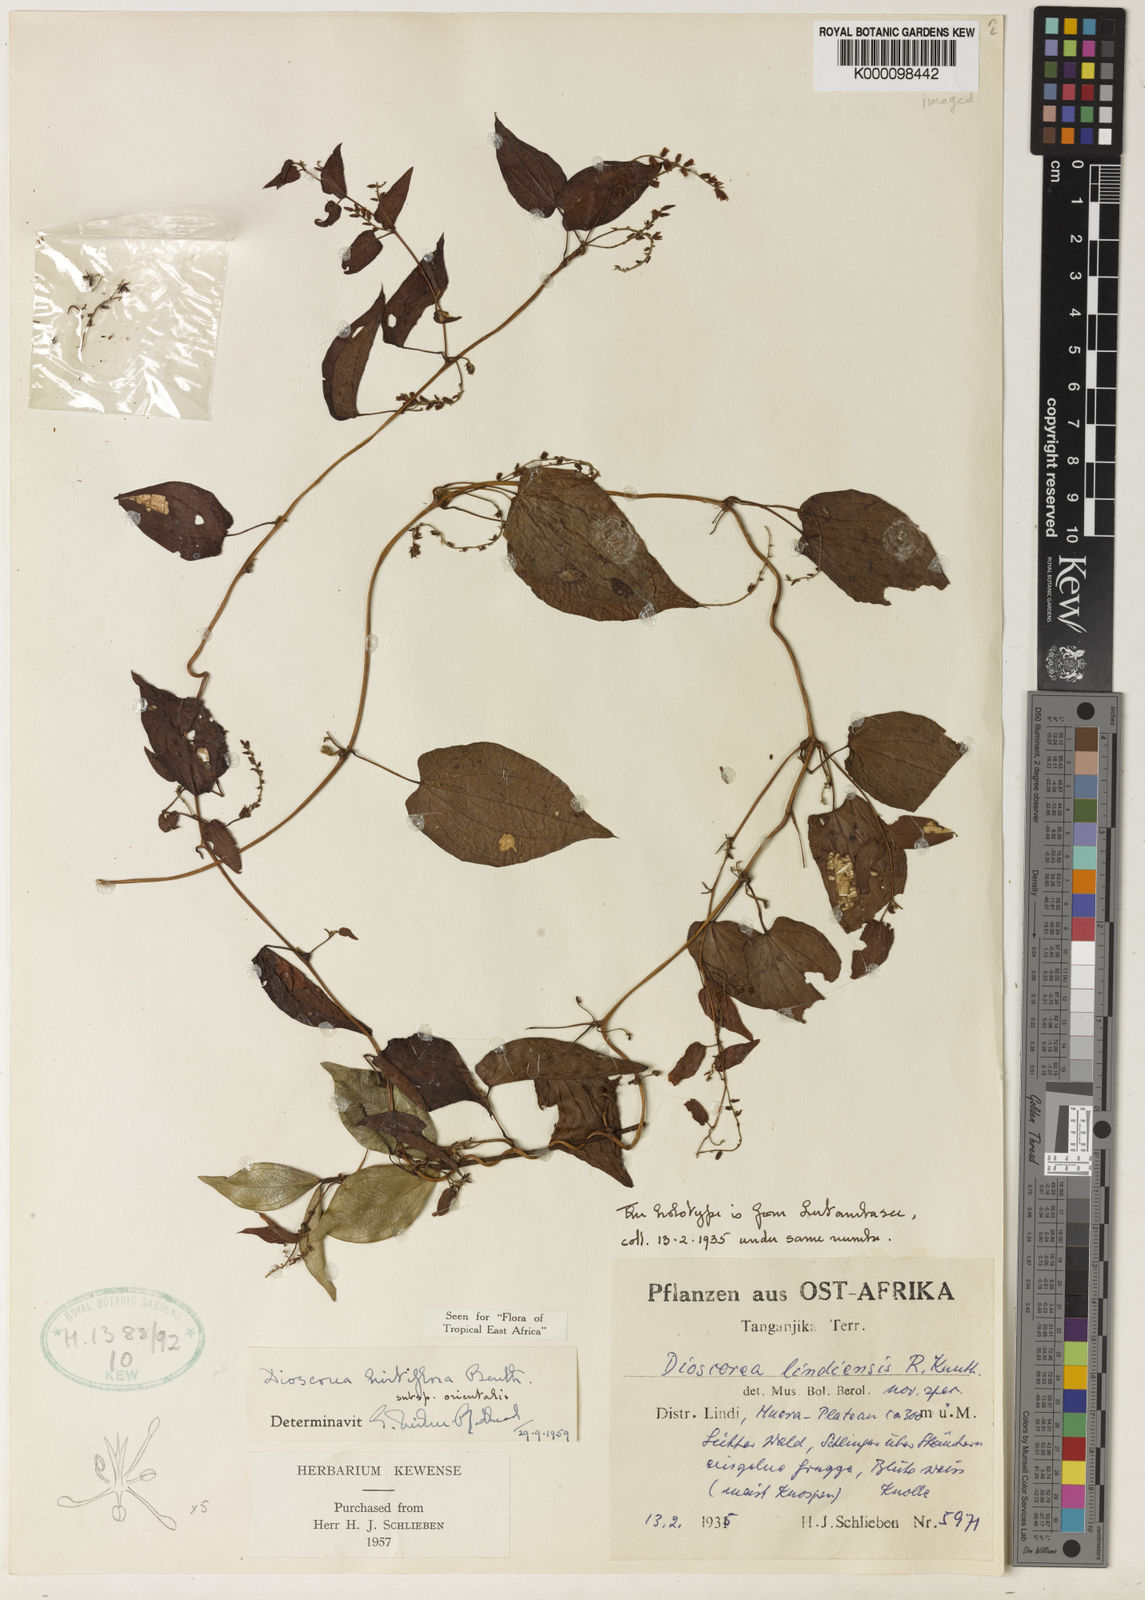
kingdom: Plantae
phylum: Tracheophyta
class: Liliopsida
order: Dioscoreales
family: Dioscoreaceae
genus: Dioscorea
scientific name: Dioscorea hirtiflora
